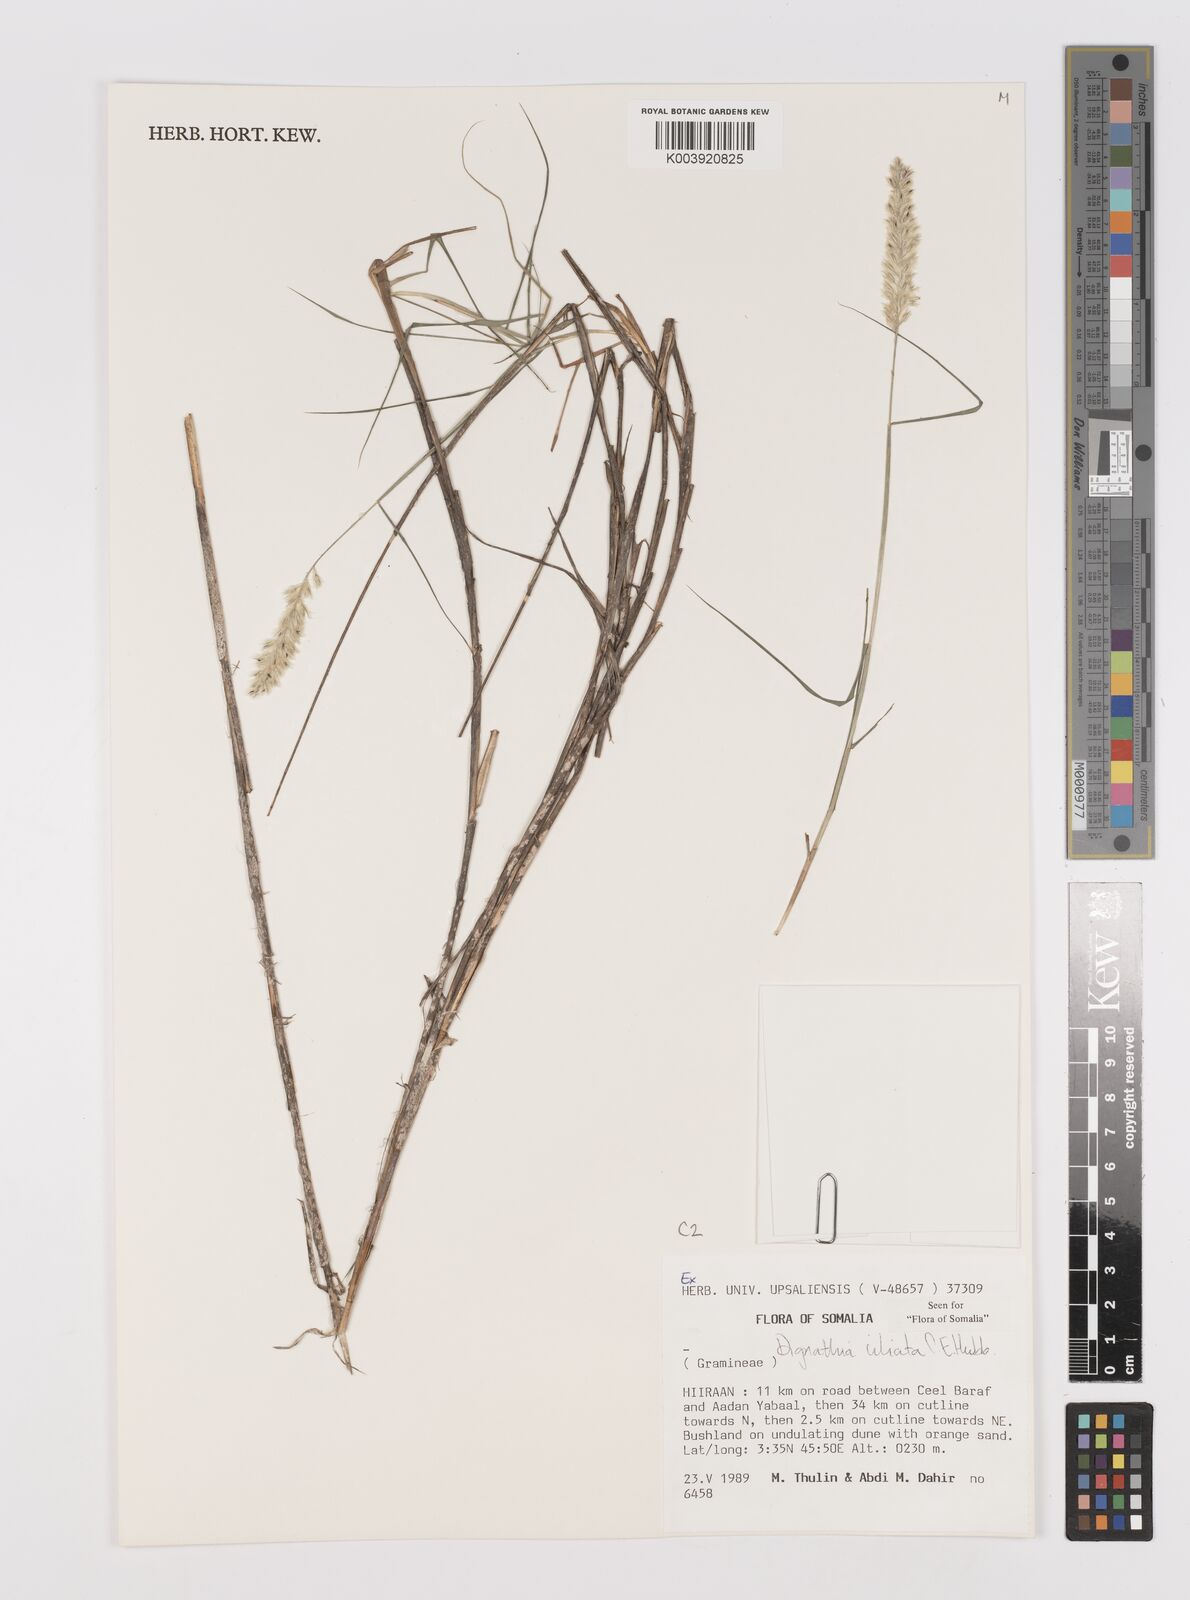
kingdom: Plantae
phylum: Tracheophyta
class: Liliopsida
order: Poales
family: Poaceae
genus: Dignathia
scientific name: Dignathia ciliata
